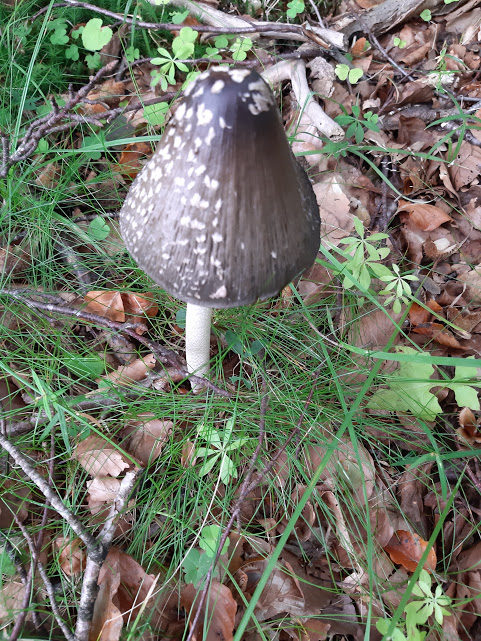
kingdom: Fungi
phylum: Basidiomycota
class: Agaricomycetes
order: Agaricales
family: Psathyrellaceae
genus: Coprinopsis
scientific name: Coprinopsis picacea
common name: skade-blækhat
